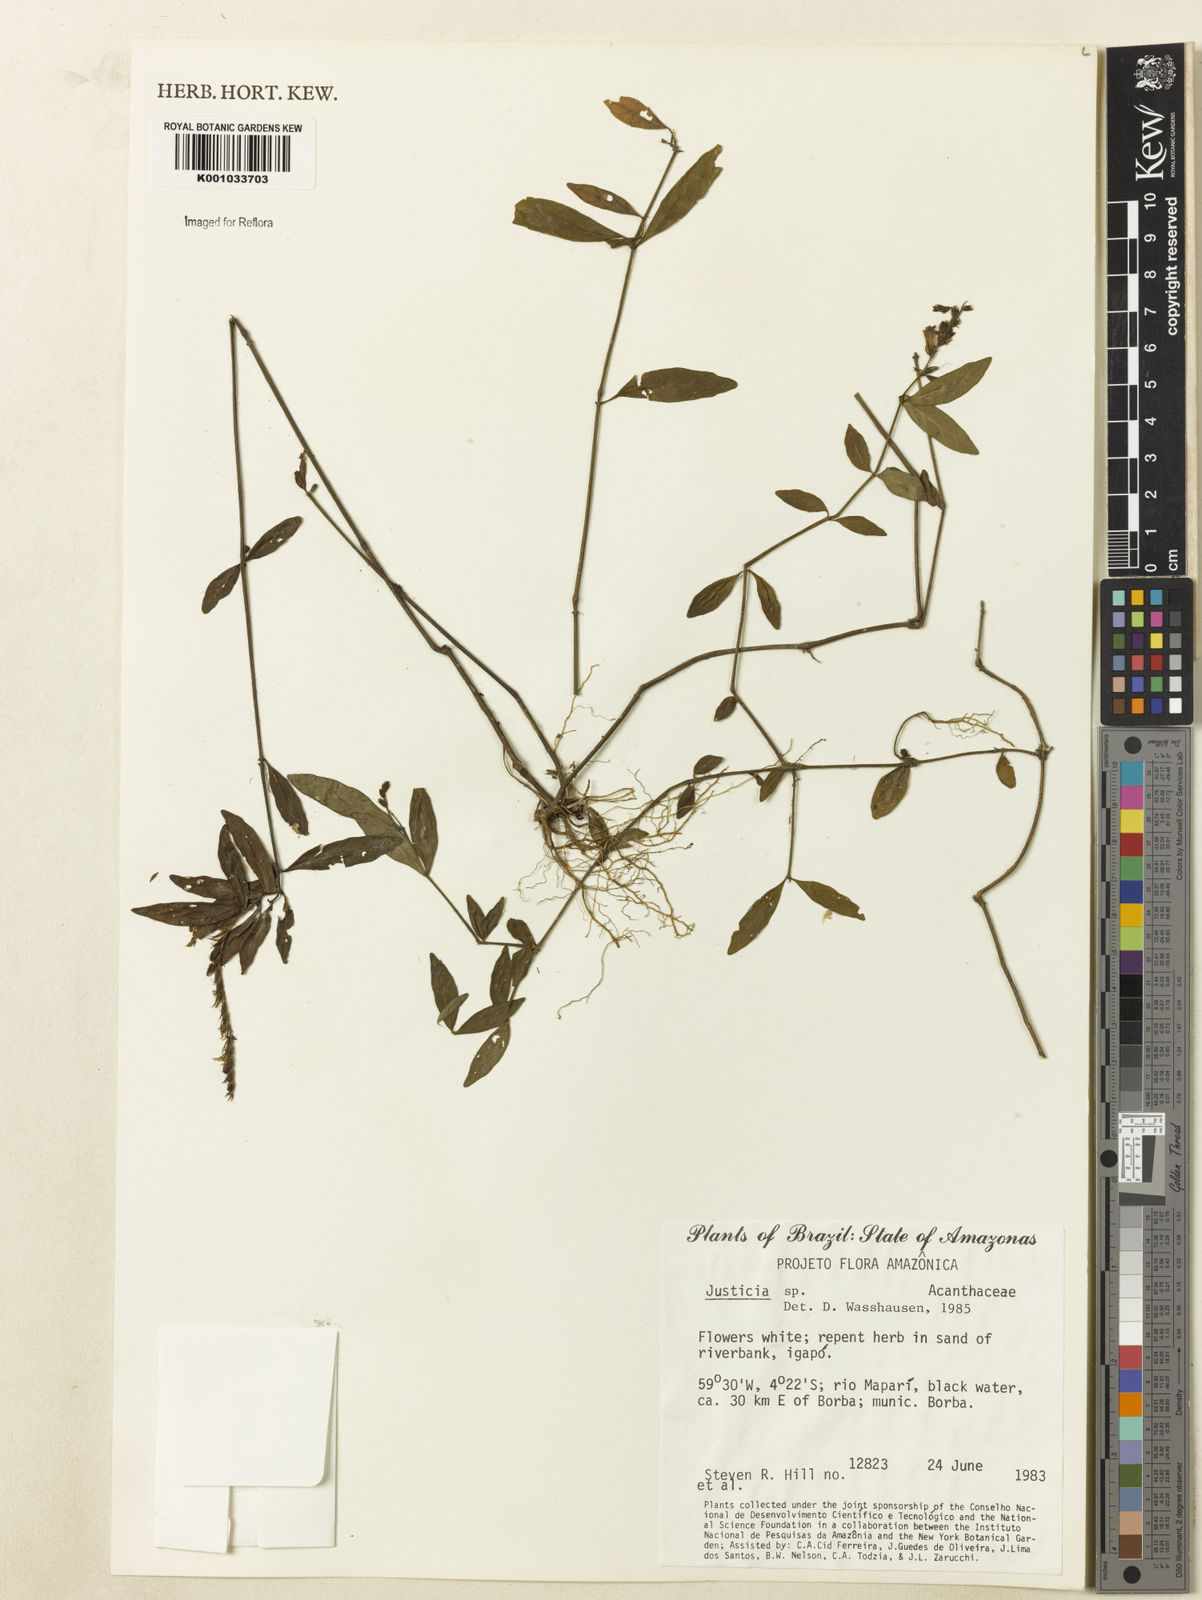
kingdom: Plantae
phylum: Tracheophyta
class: Magnoliopsida
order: Lamiales
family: Acanthaceae
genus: Justicia
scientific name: Justicia
